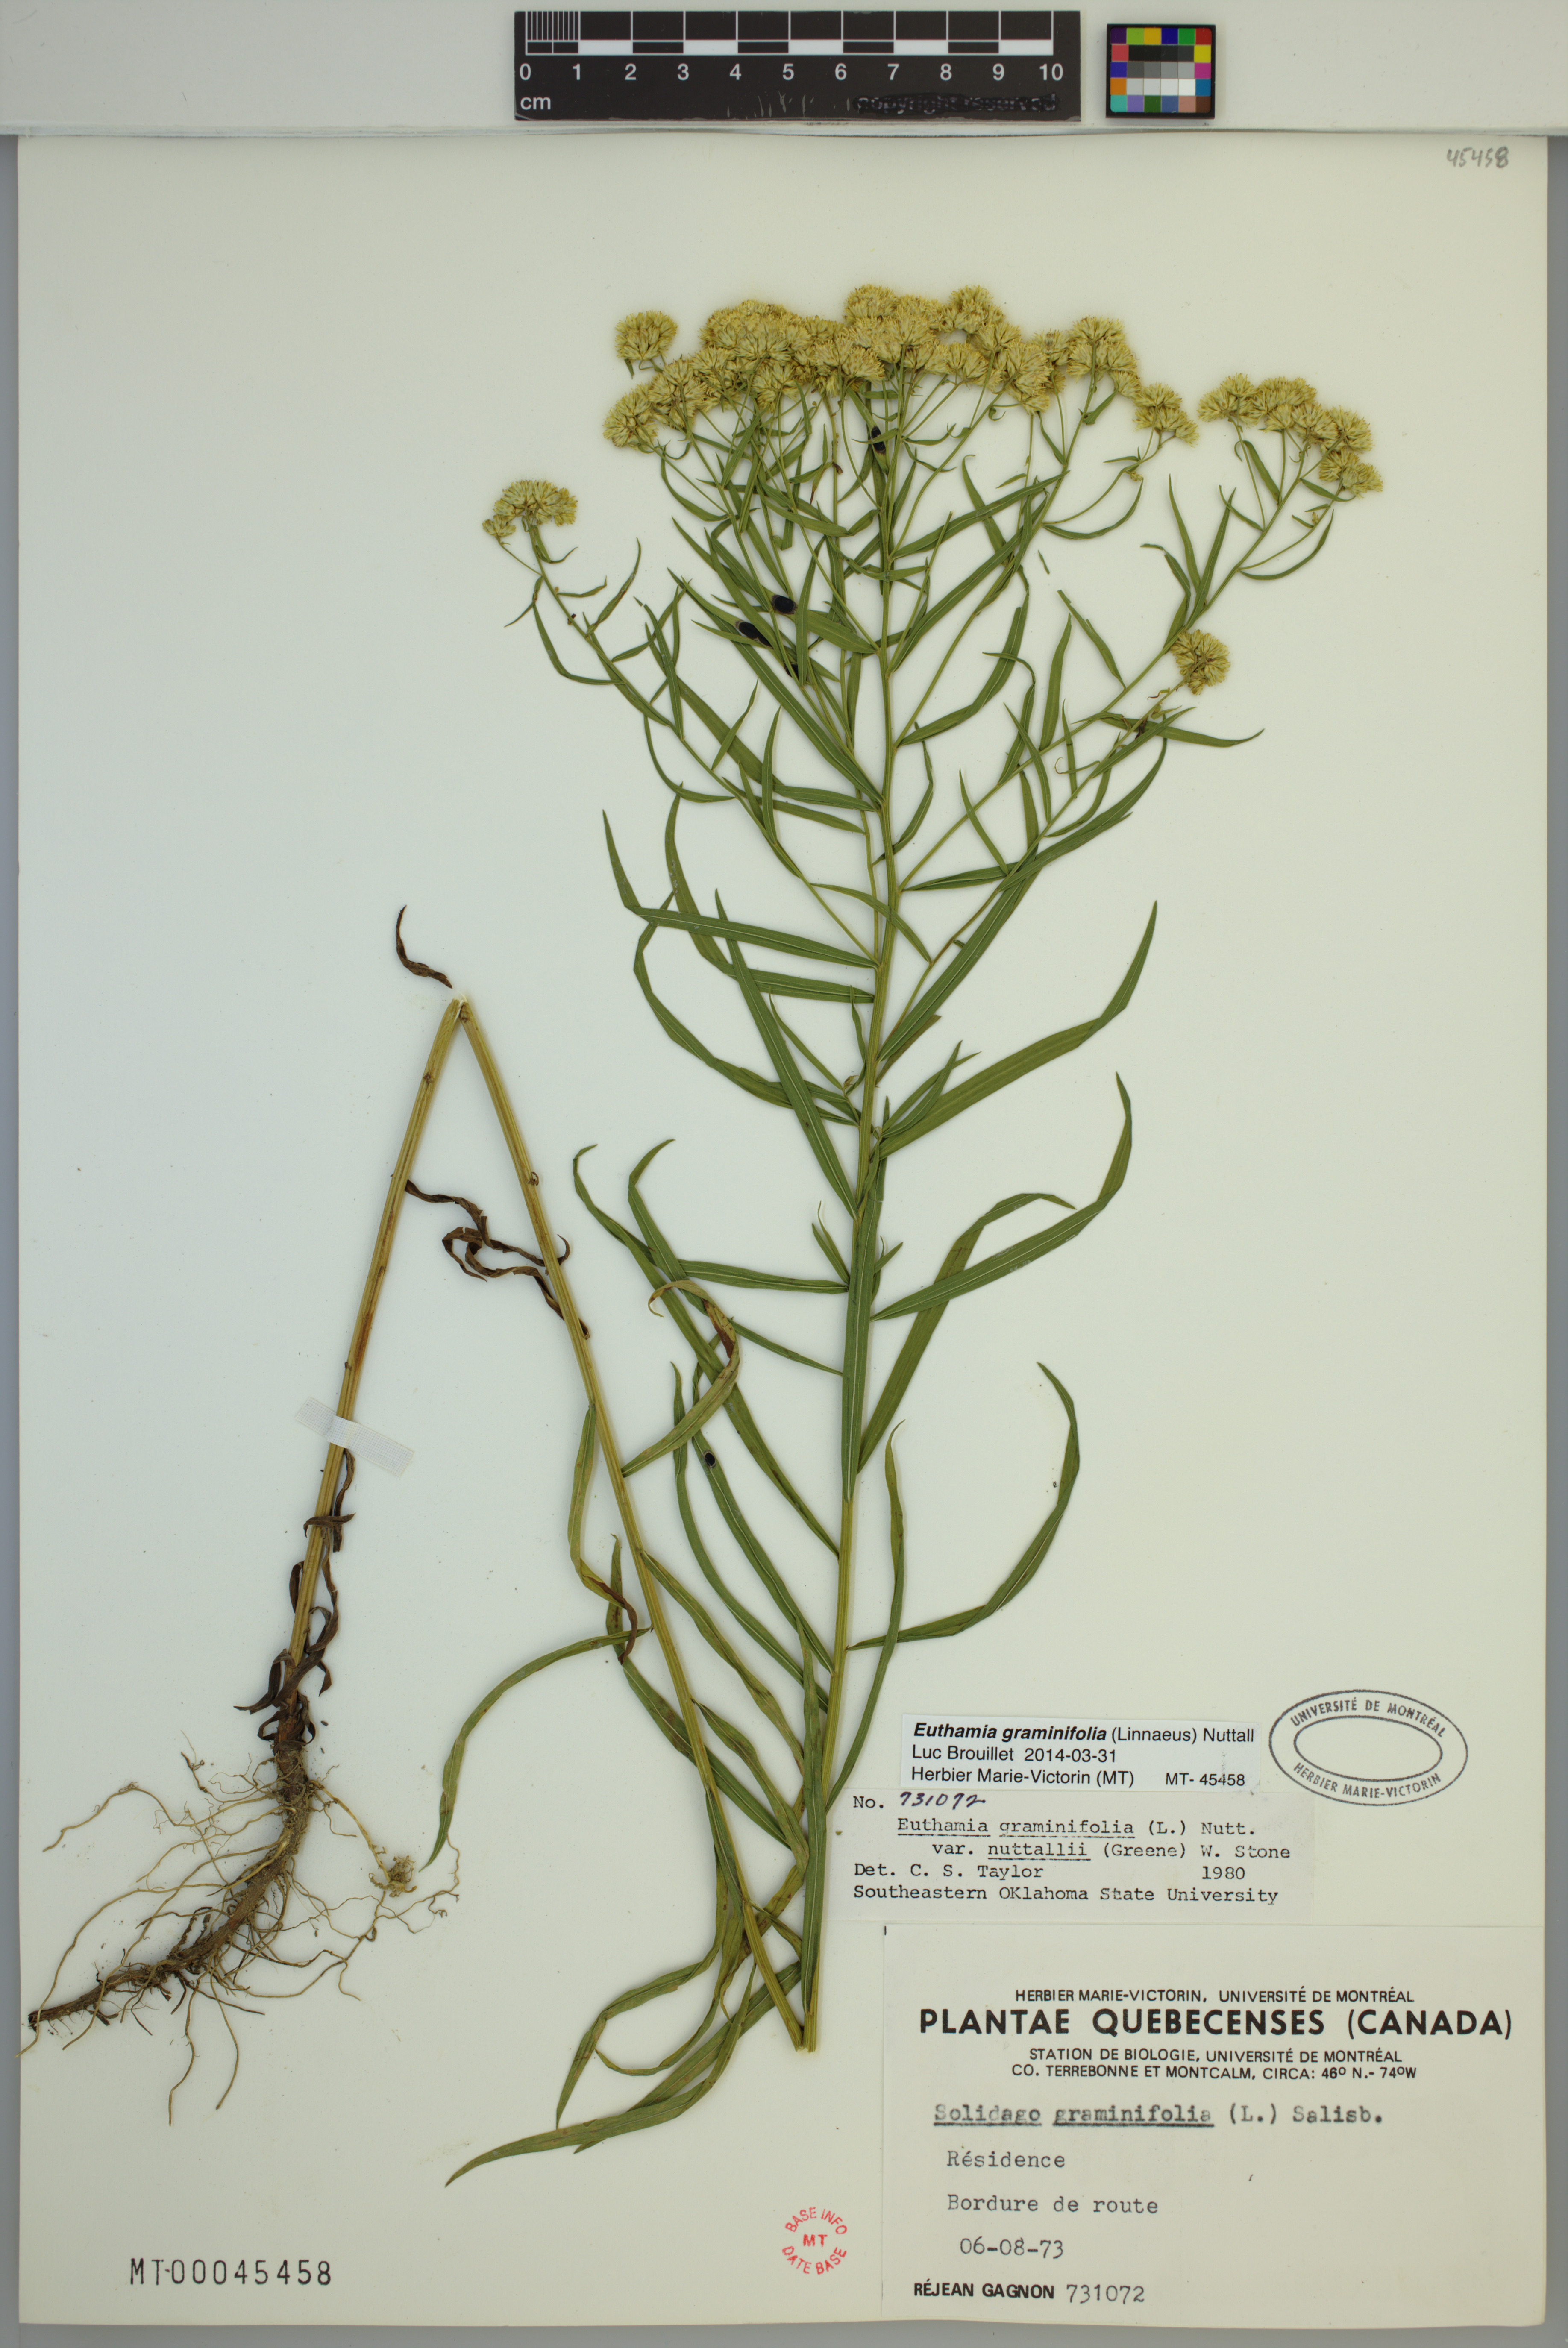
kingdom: Plantae
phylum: Tracheophyta
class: Magnoliopsida
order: Asterales
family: Asteraceae
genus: Euthamia
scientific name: Euthamia graminifolia
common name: Common goldentop
